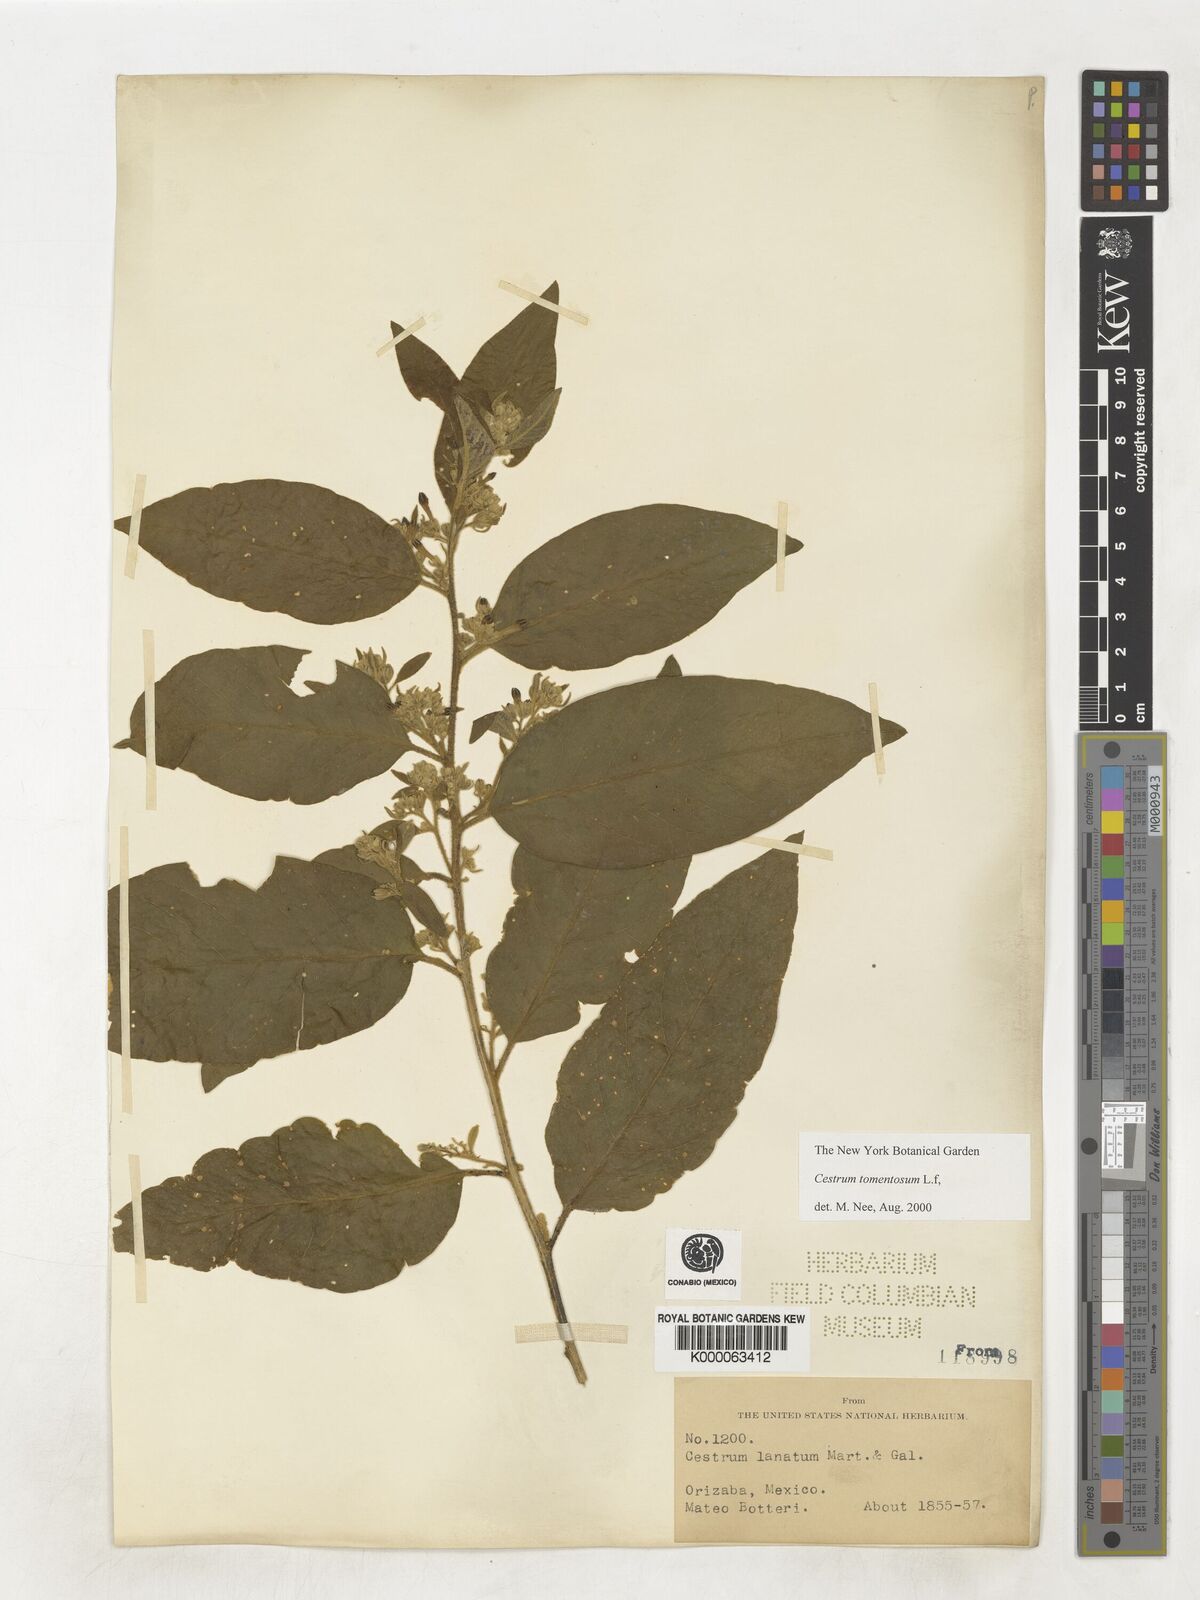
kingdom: Plantae
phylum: Tracheophyta
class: Magnoliopsida
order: Solanales
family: Solanaceae
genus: Cestrum
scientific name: Cestrum tomentosum
